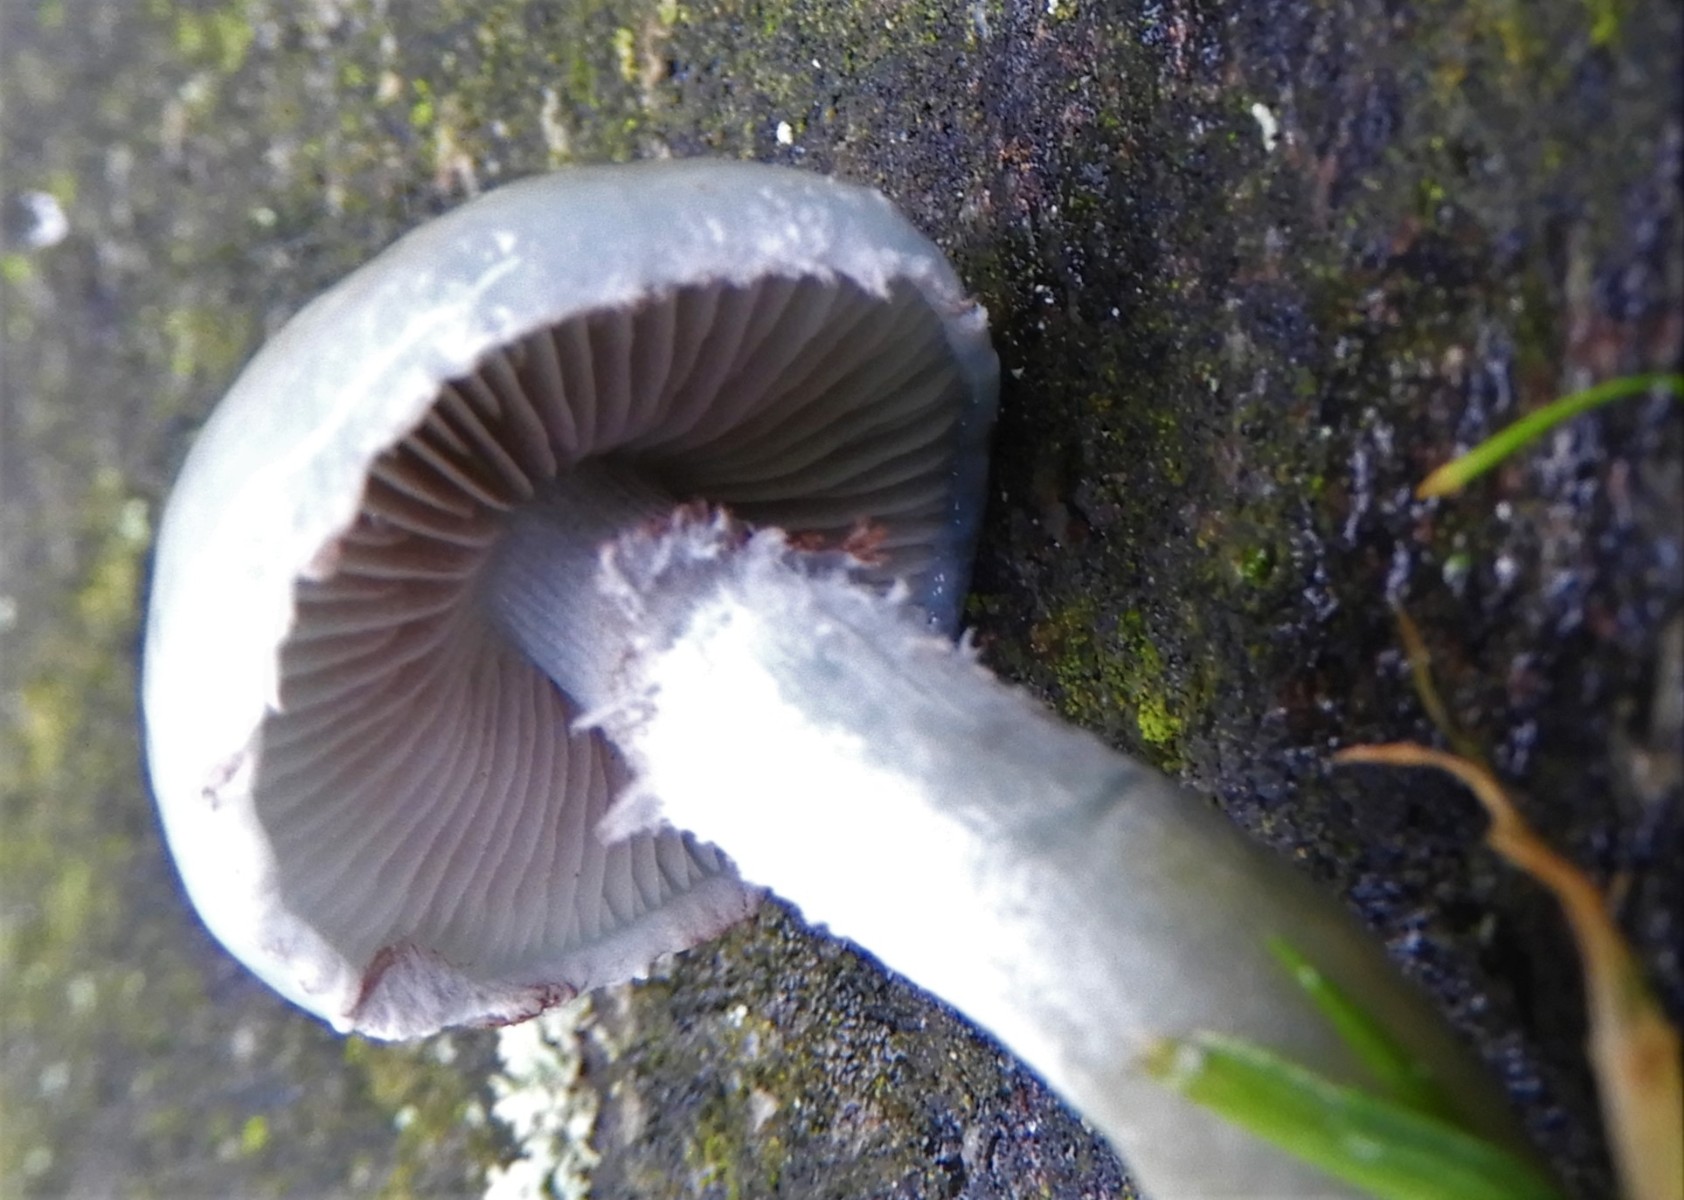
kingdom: Fungi
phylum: Basidiomycota
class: Agaricomycetes
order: Agaricales
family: Strophariaceae
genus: Stropharia
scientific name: Stropharia cyanea
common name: blågrøn bredblad
